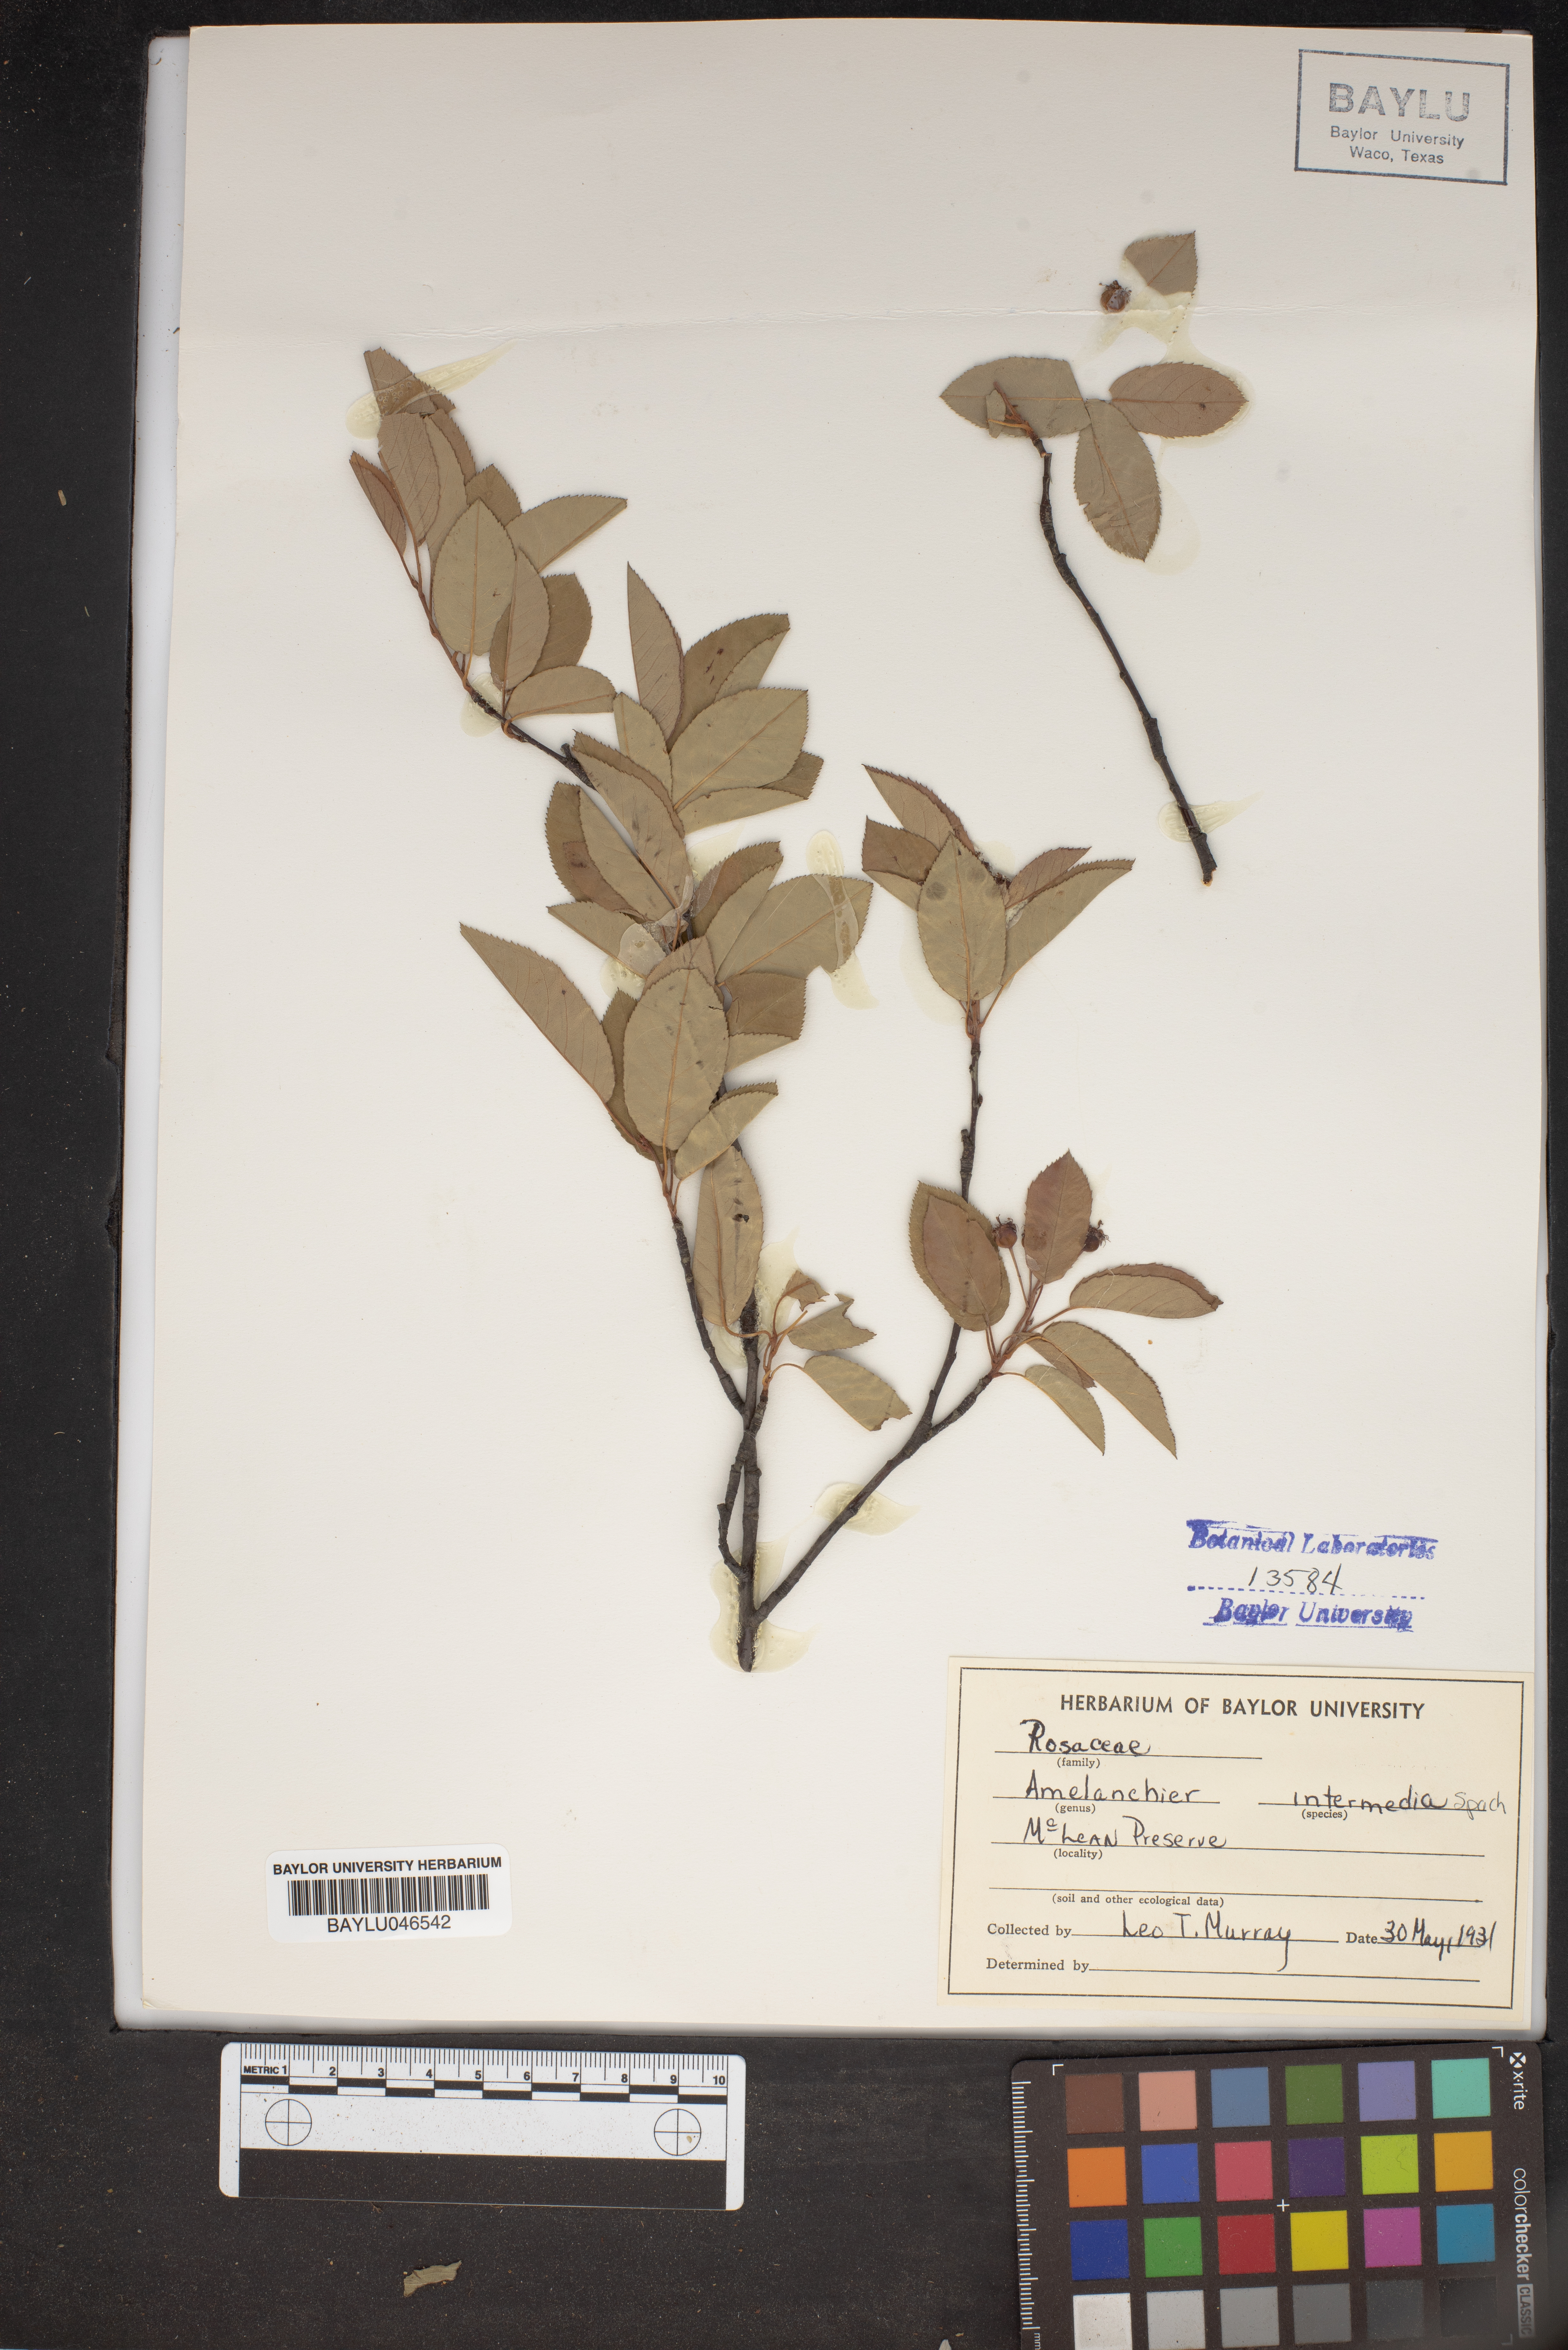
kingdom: Plantae
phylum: Tracheophyta
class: Magnoliopsida
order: Rosales
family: Rosaceae
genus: Amelanchier
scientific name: Amelanchier intermedia
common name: Intermediate shadbush
